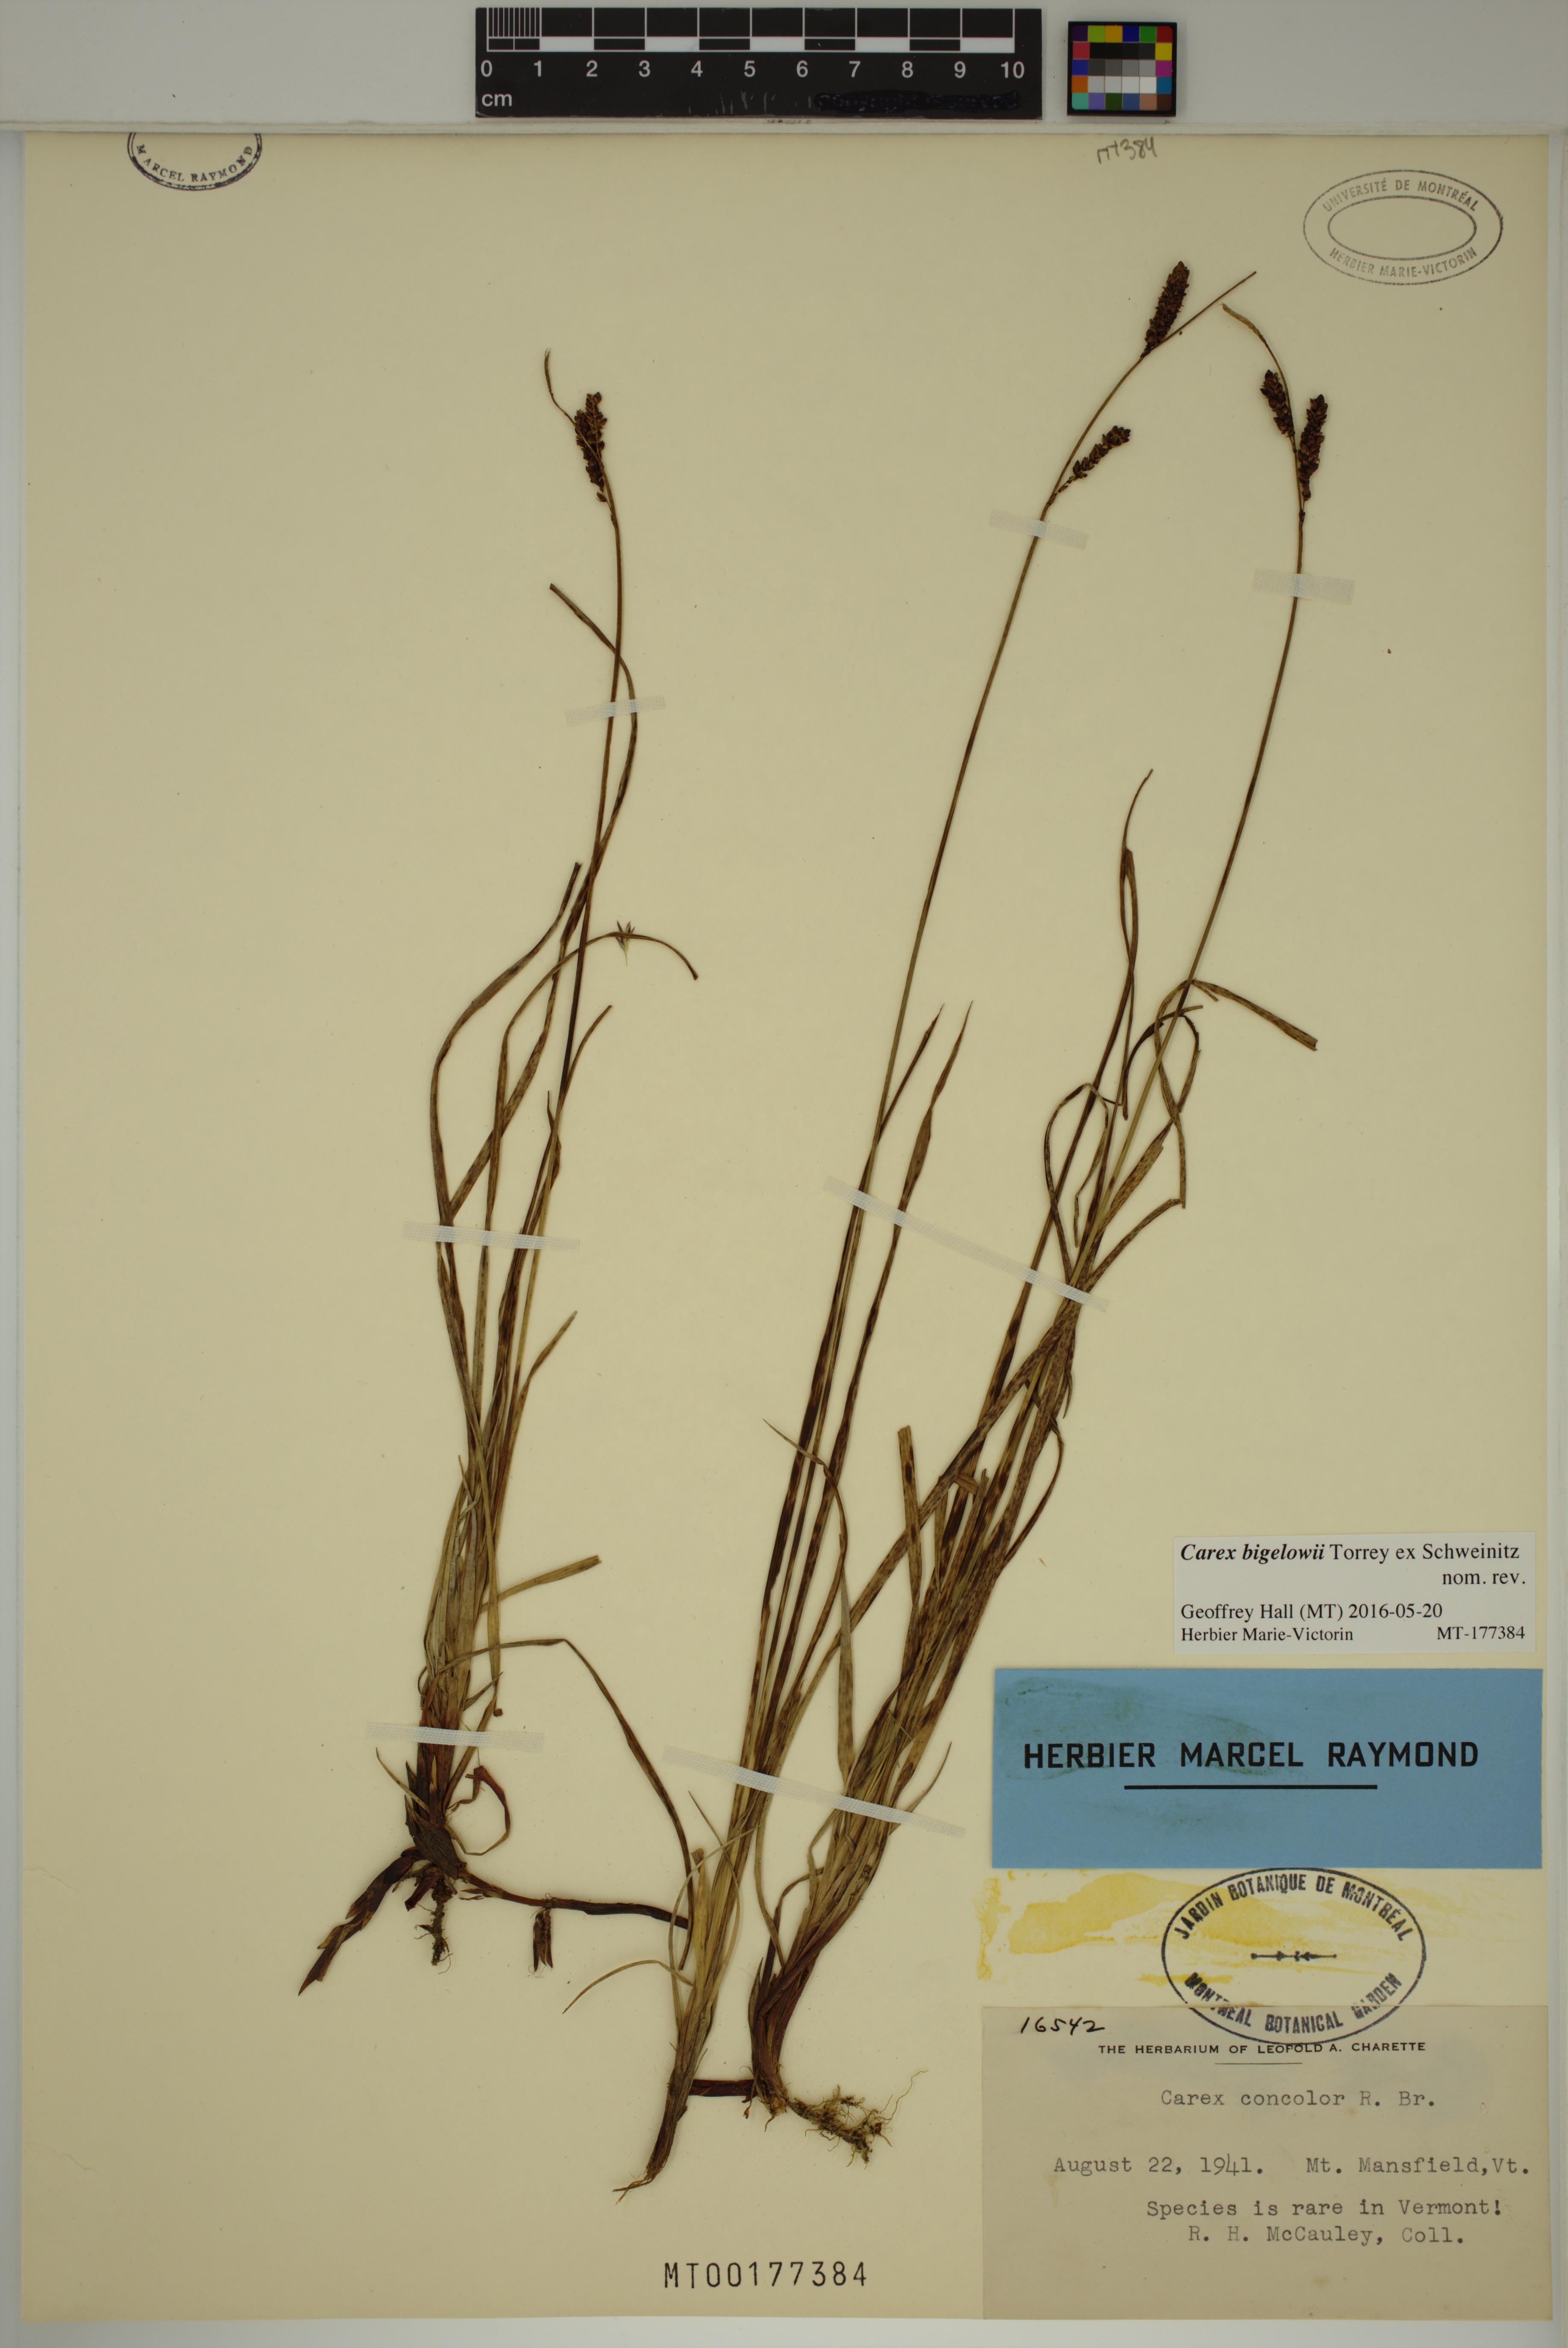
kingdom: Plantae
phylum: Tracheophyta
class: Liliopsida
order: Poales
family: Cyperaceae
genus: Carex
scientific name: Carex bigelowii
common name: Stiff sedge
